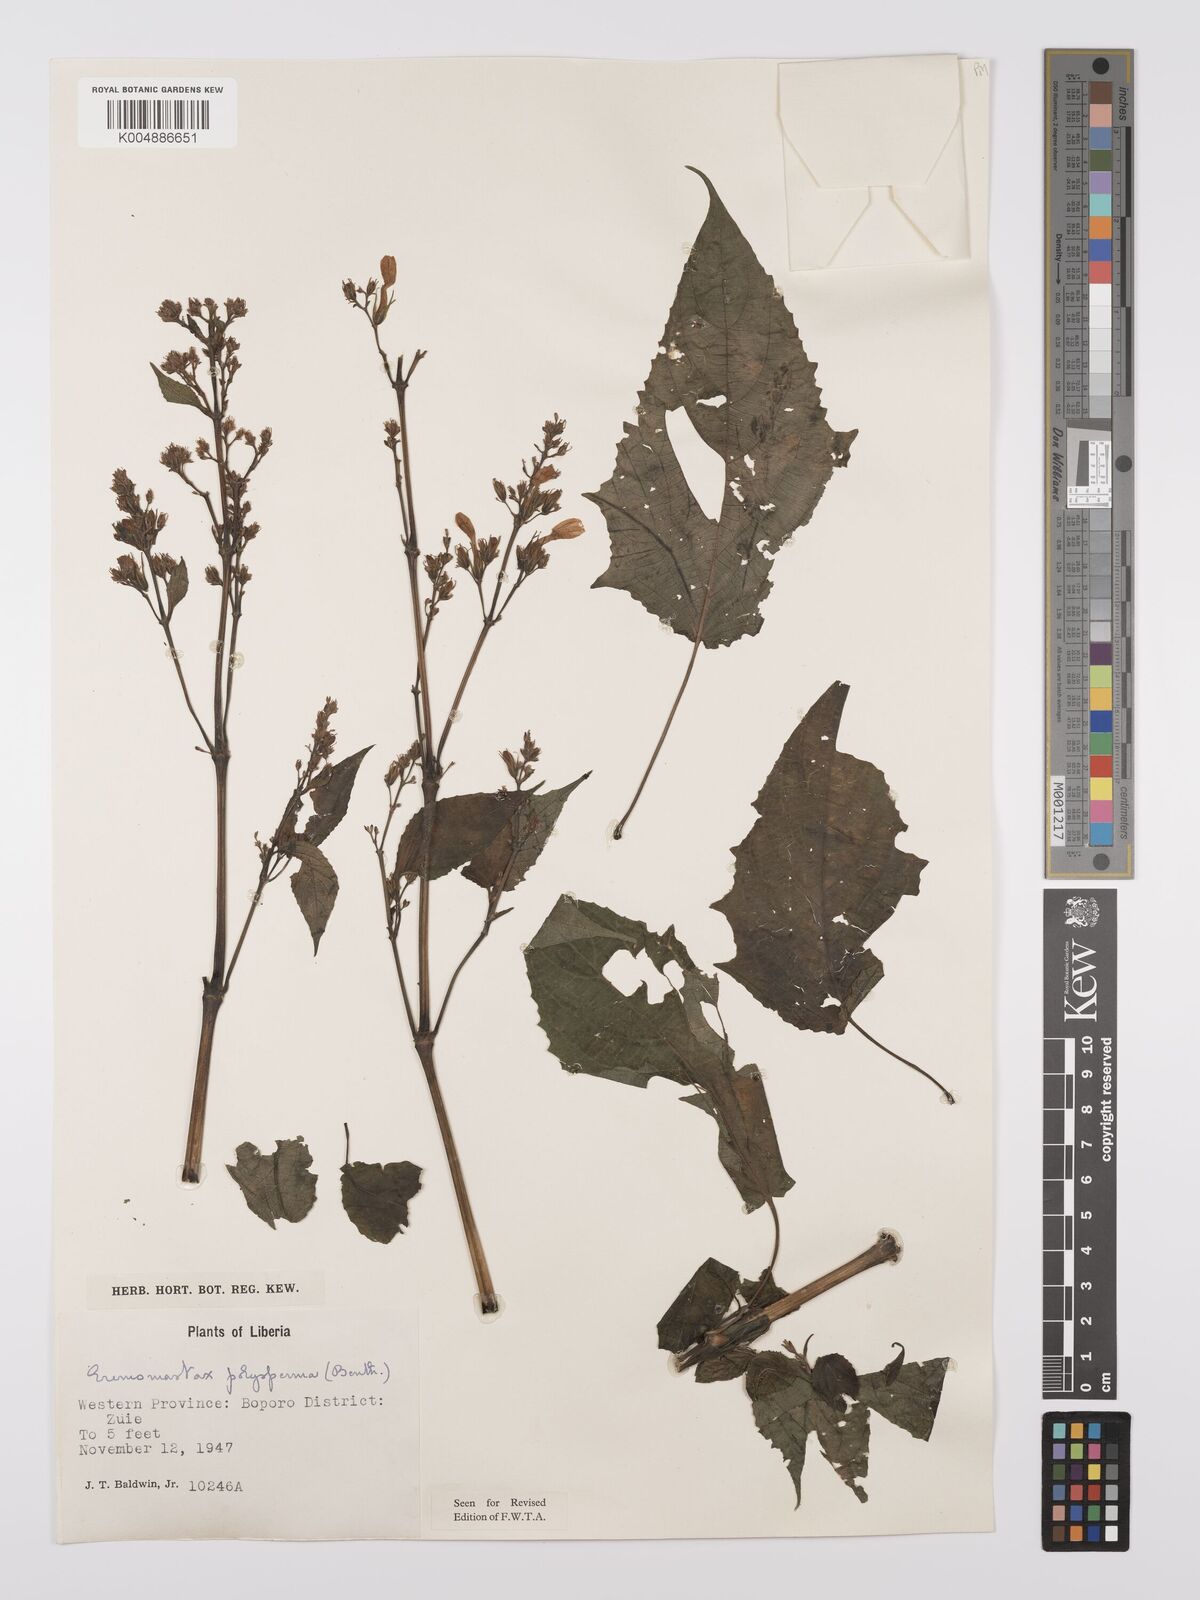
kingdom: Plantae
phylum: Tracheophyta
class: Magnoliopsida
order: Lamiales
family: Acanthaceae
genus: Eremomastax
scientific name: Eremomastax speciosa
